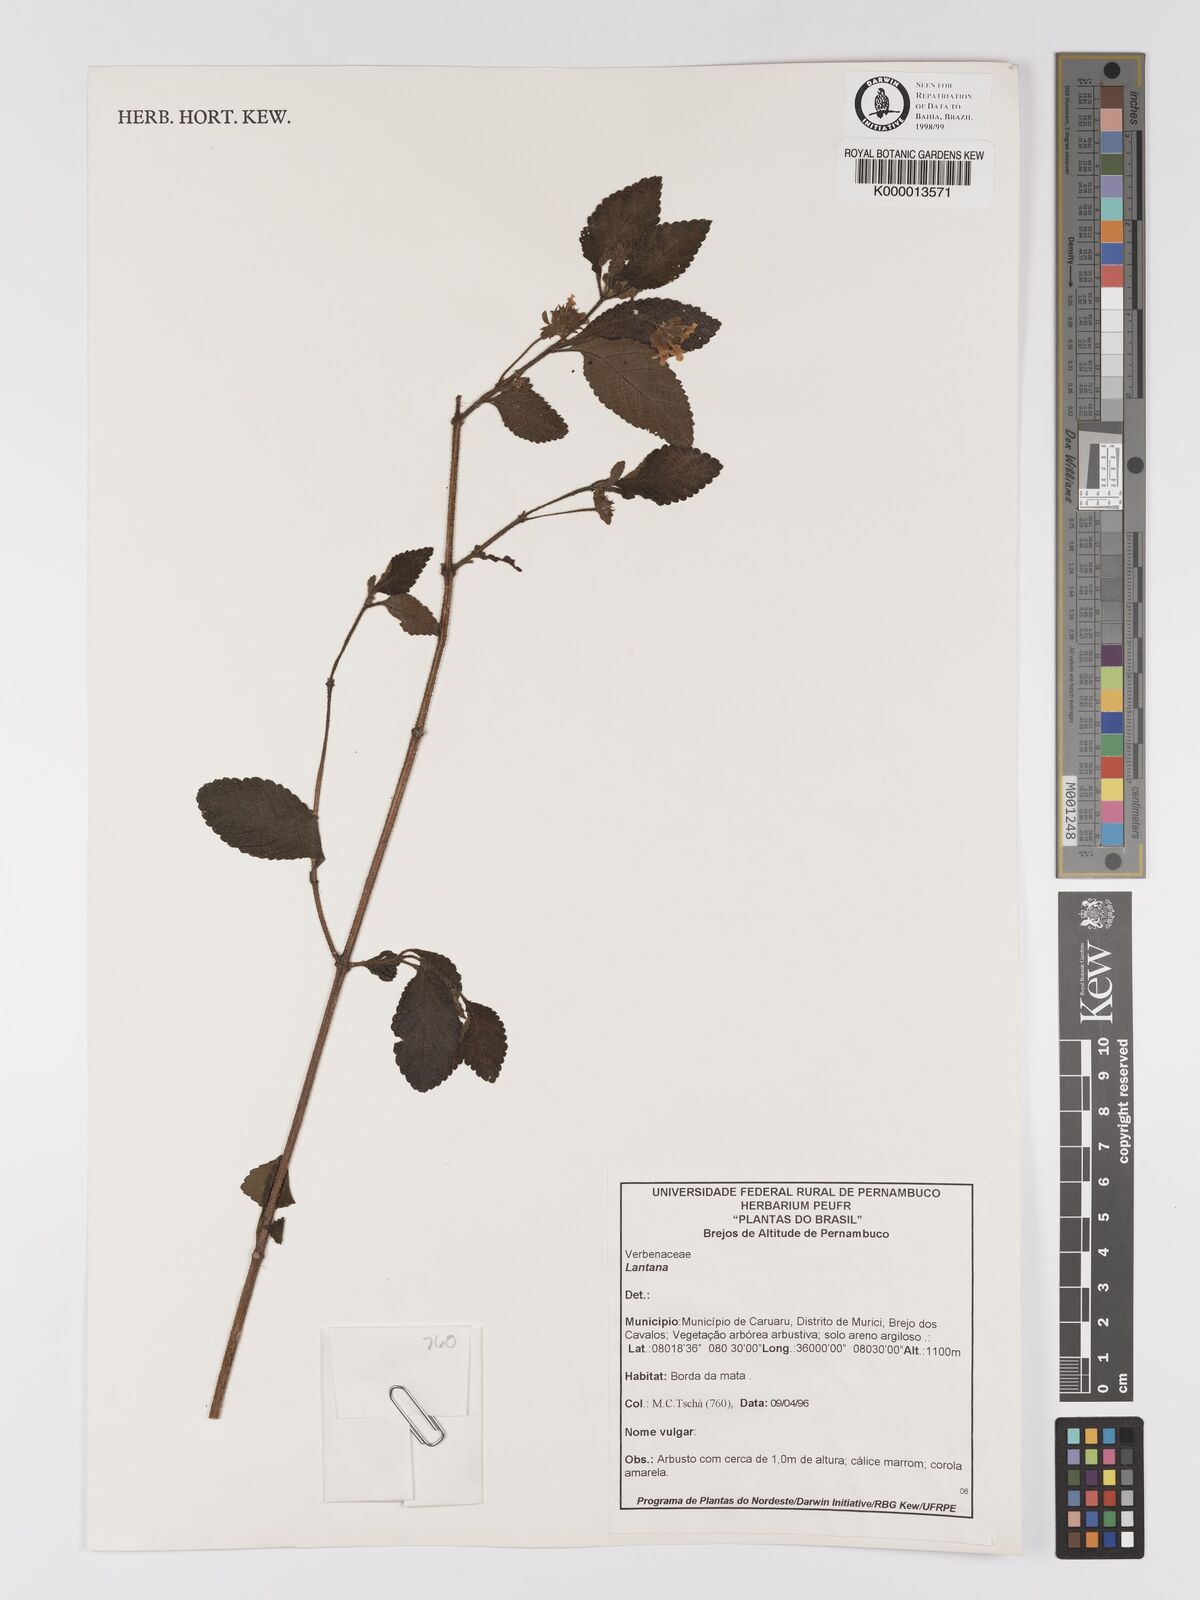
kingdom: Plantae
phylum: Tracheophyta
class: Magnoliopsida
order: Lamiales
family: Verbenaceae
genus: Lantana
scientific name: Lantana
